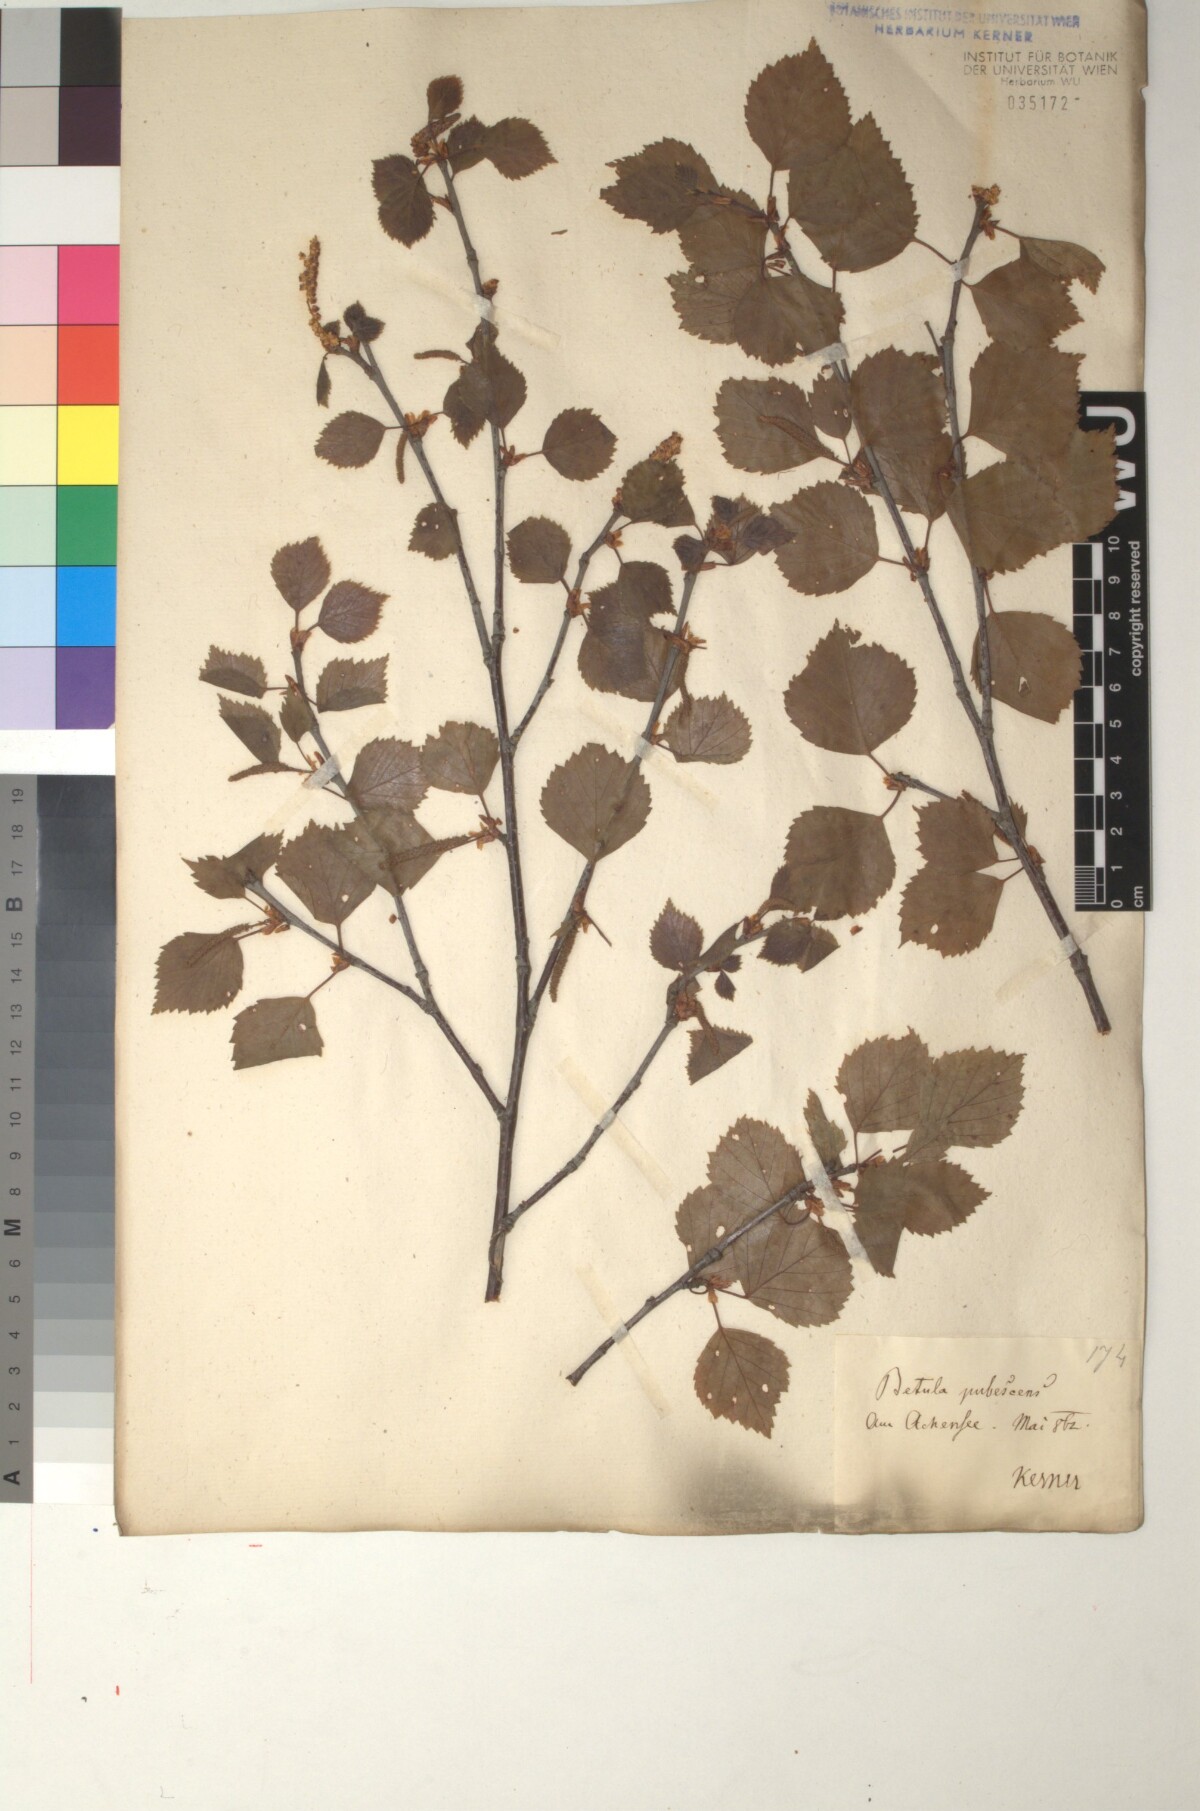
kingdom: Plantae
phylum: Tracheophyta
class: Magnoliopsida
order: Fagales
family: Betulaceae
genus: Betula
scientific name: Betula pubescens
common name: Downy birch
